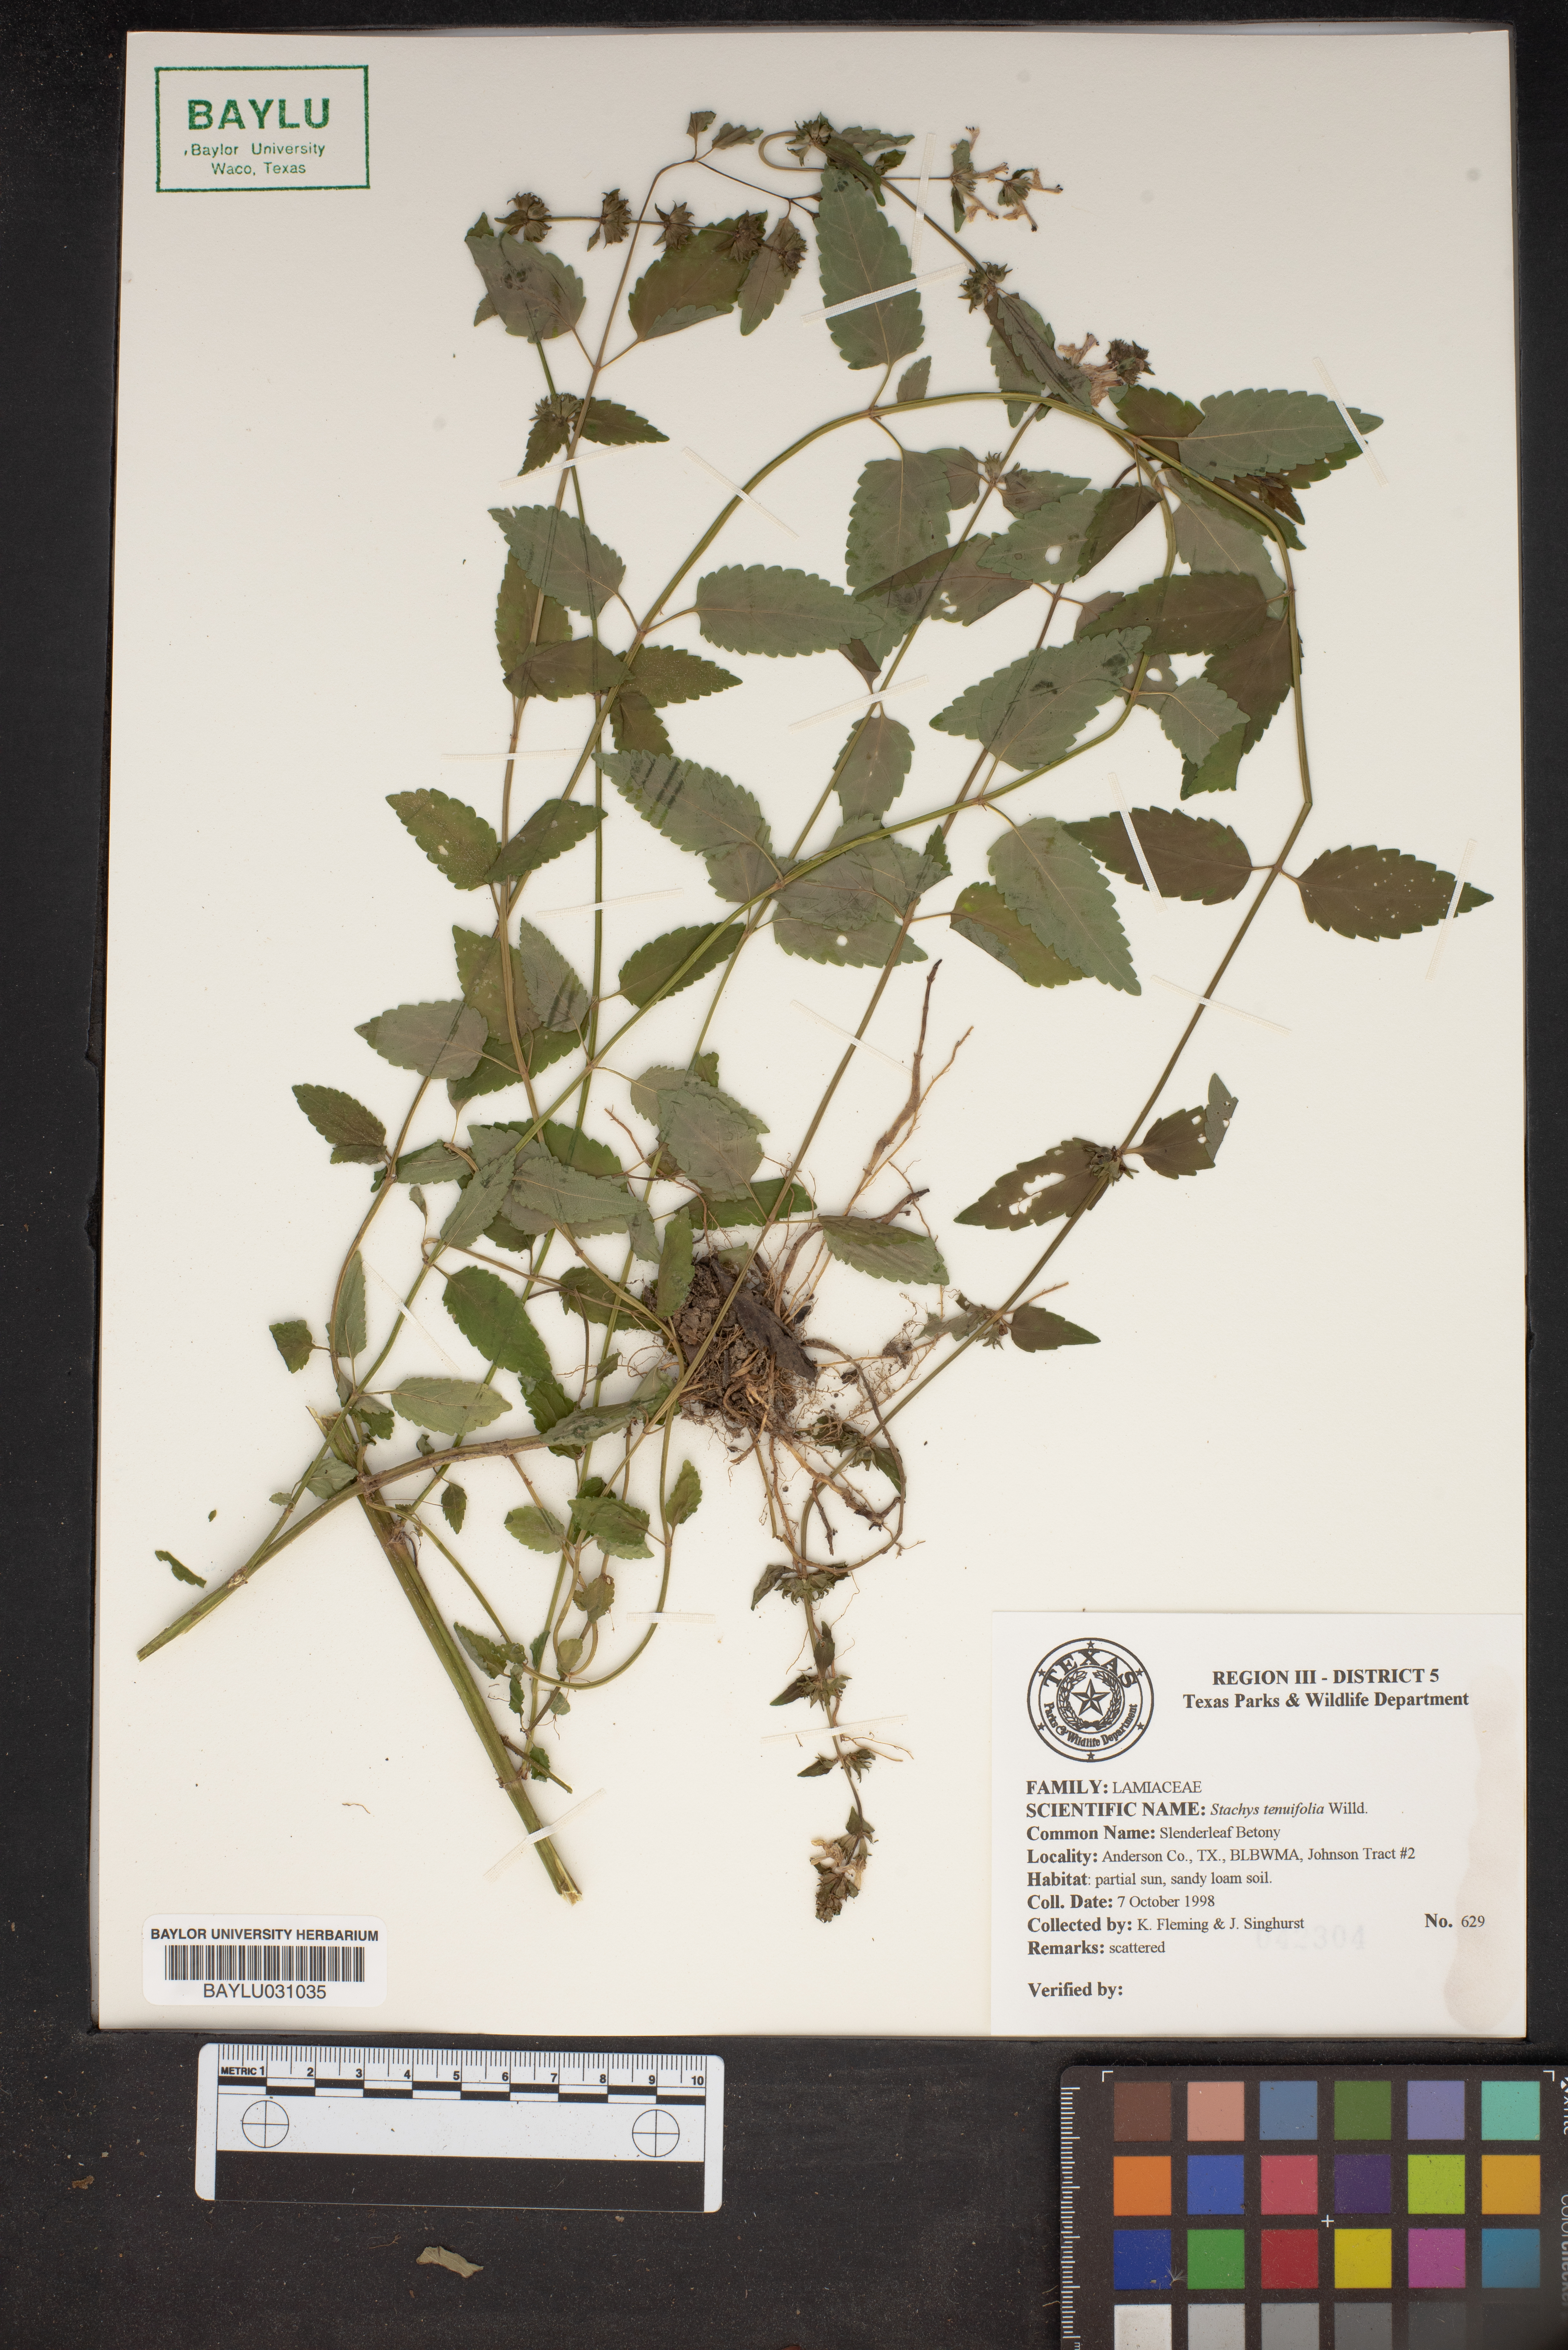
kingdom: Plantae
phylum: Tracheophyta
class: Magnoliopsida
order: Lamiales
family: Lamiaceae
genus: Stachys
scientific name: Stachys tenuifolia
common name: Smooth hedge-nettle
